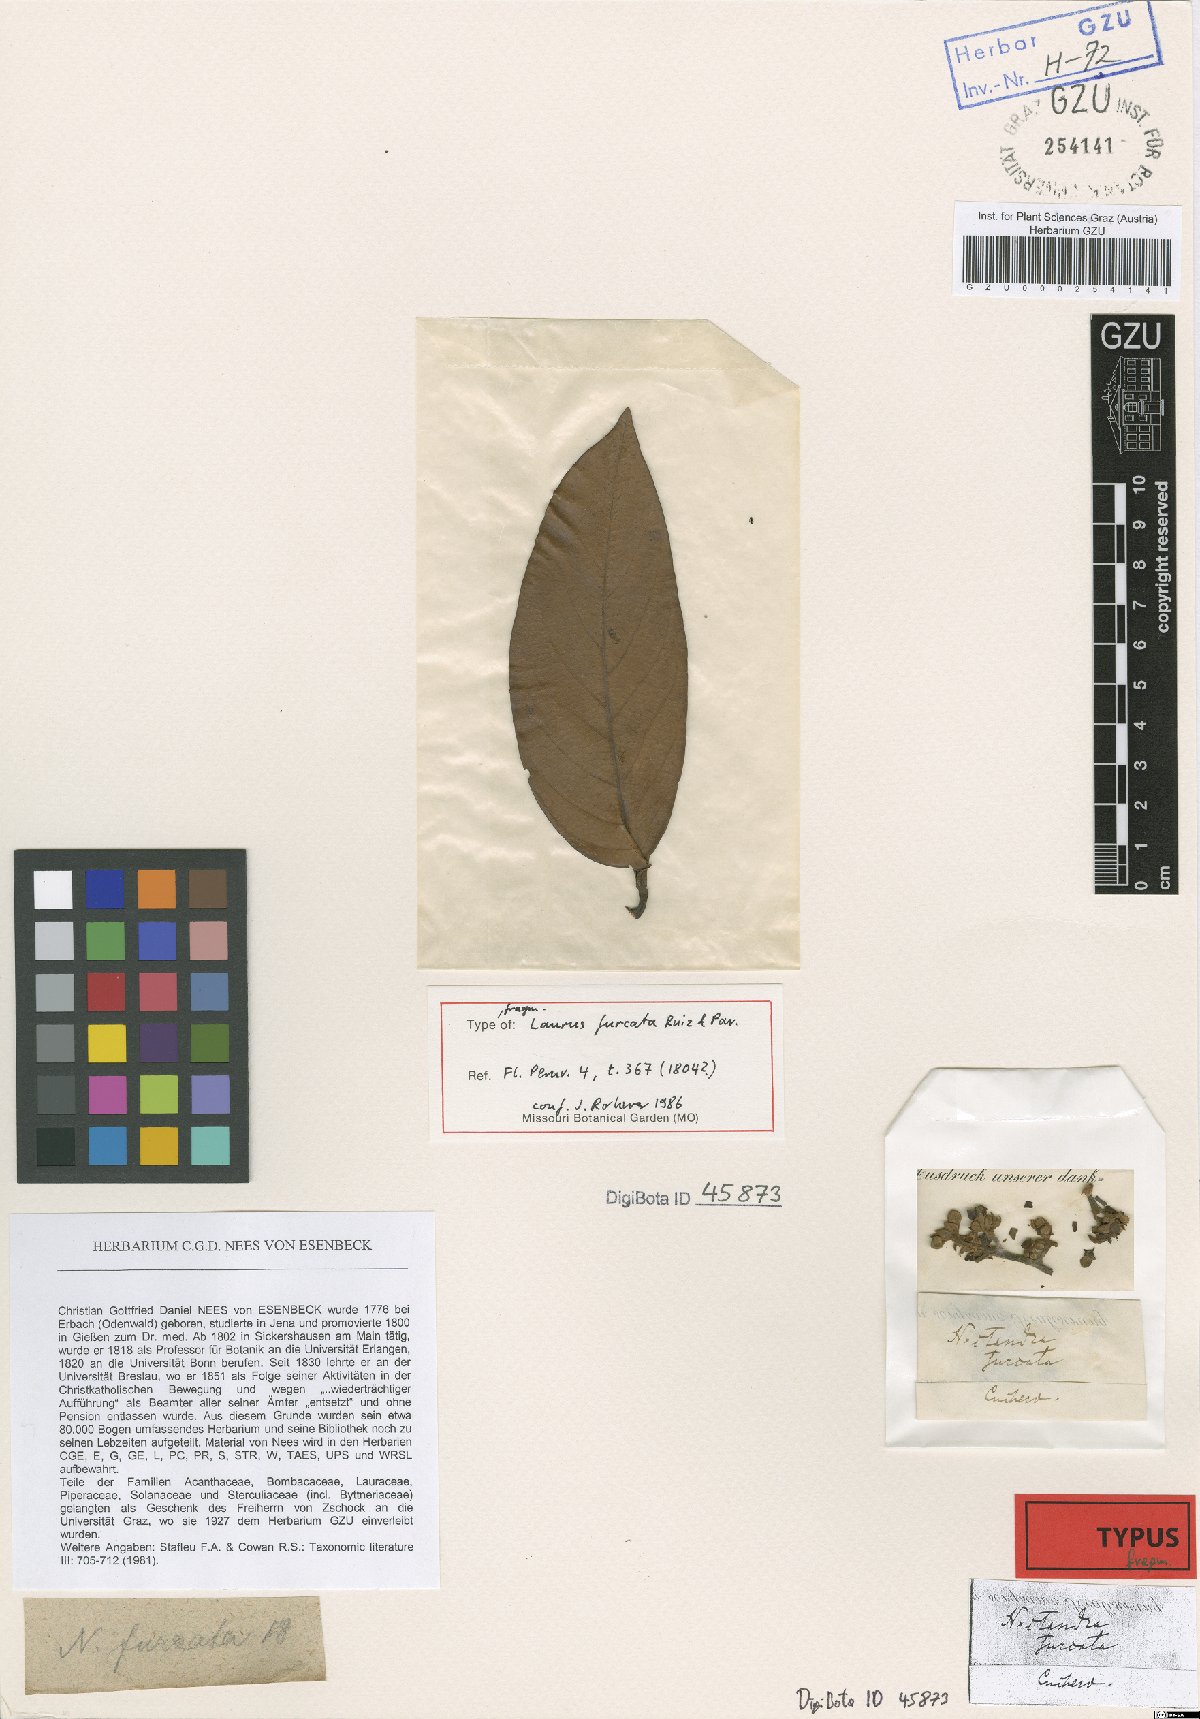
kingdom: Plantae
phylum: Tracheophyta
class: Magnoliopsida
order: Laurales
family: Lauraceae
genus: Nectandra
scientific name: Nectandra furcata
